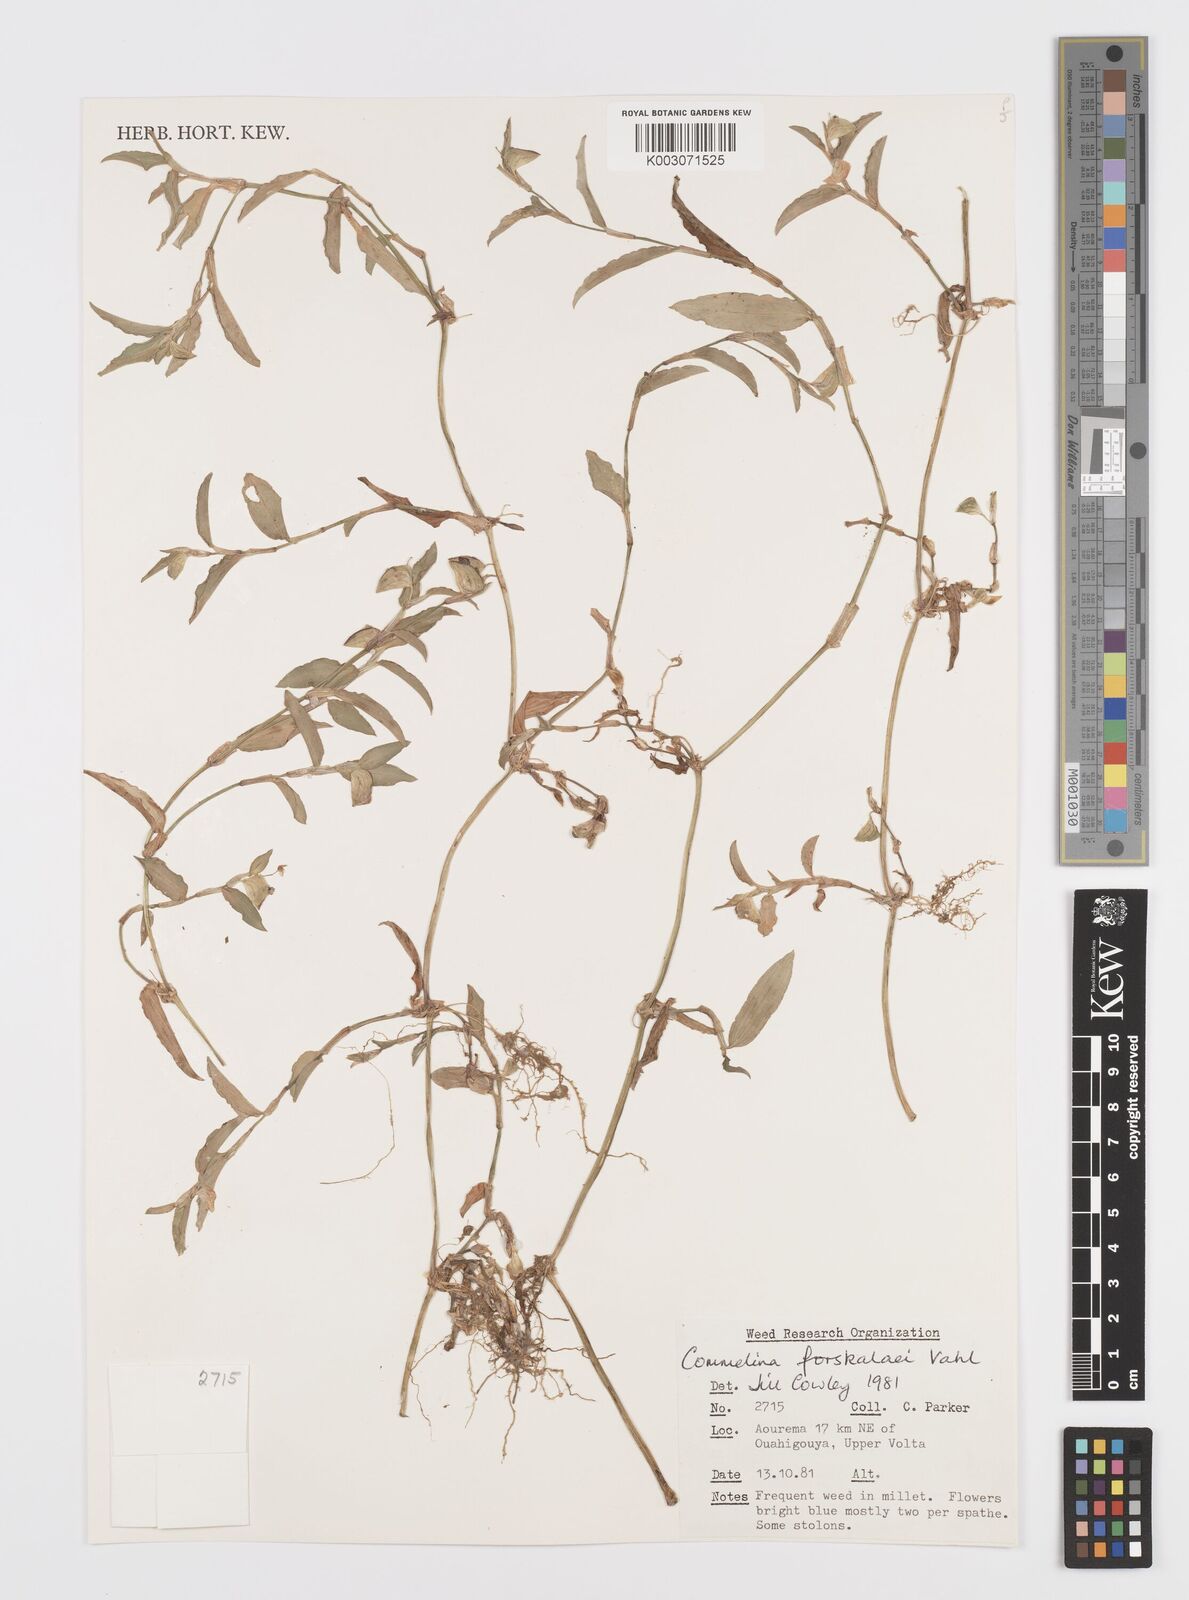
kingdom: Plantae
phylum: Tracheophyta
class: Liliopsida
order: Commelinales
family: Commelinaceae
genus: Commelina
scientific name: Commelina forskaolii
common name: Rat's ear
